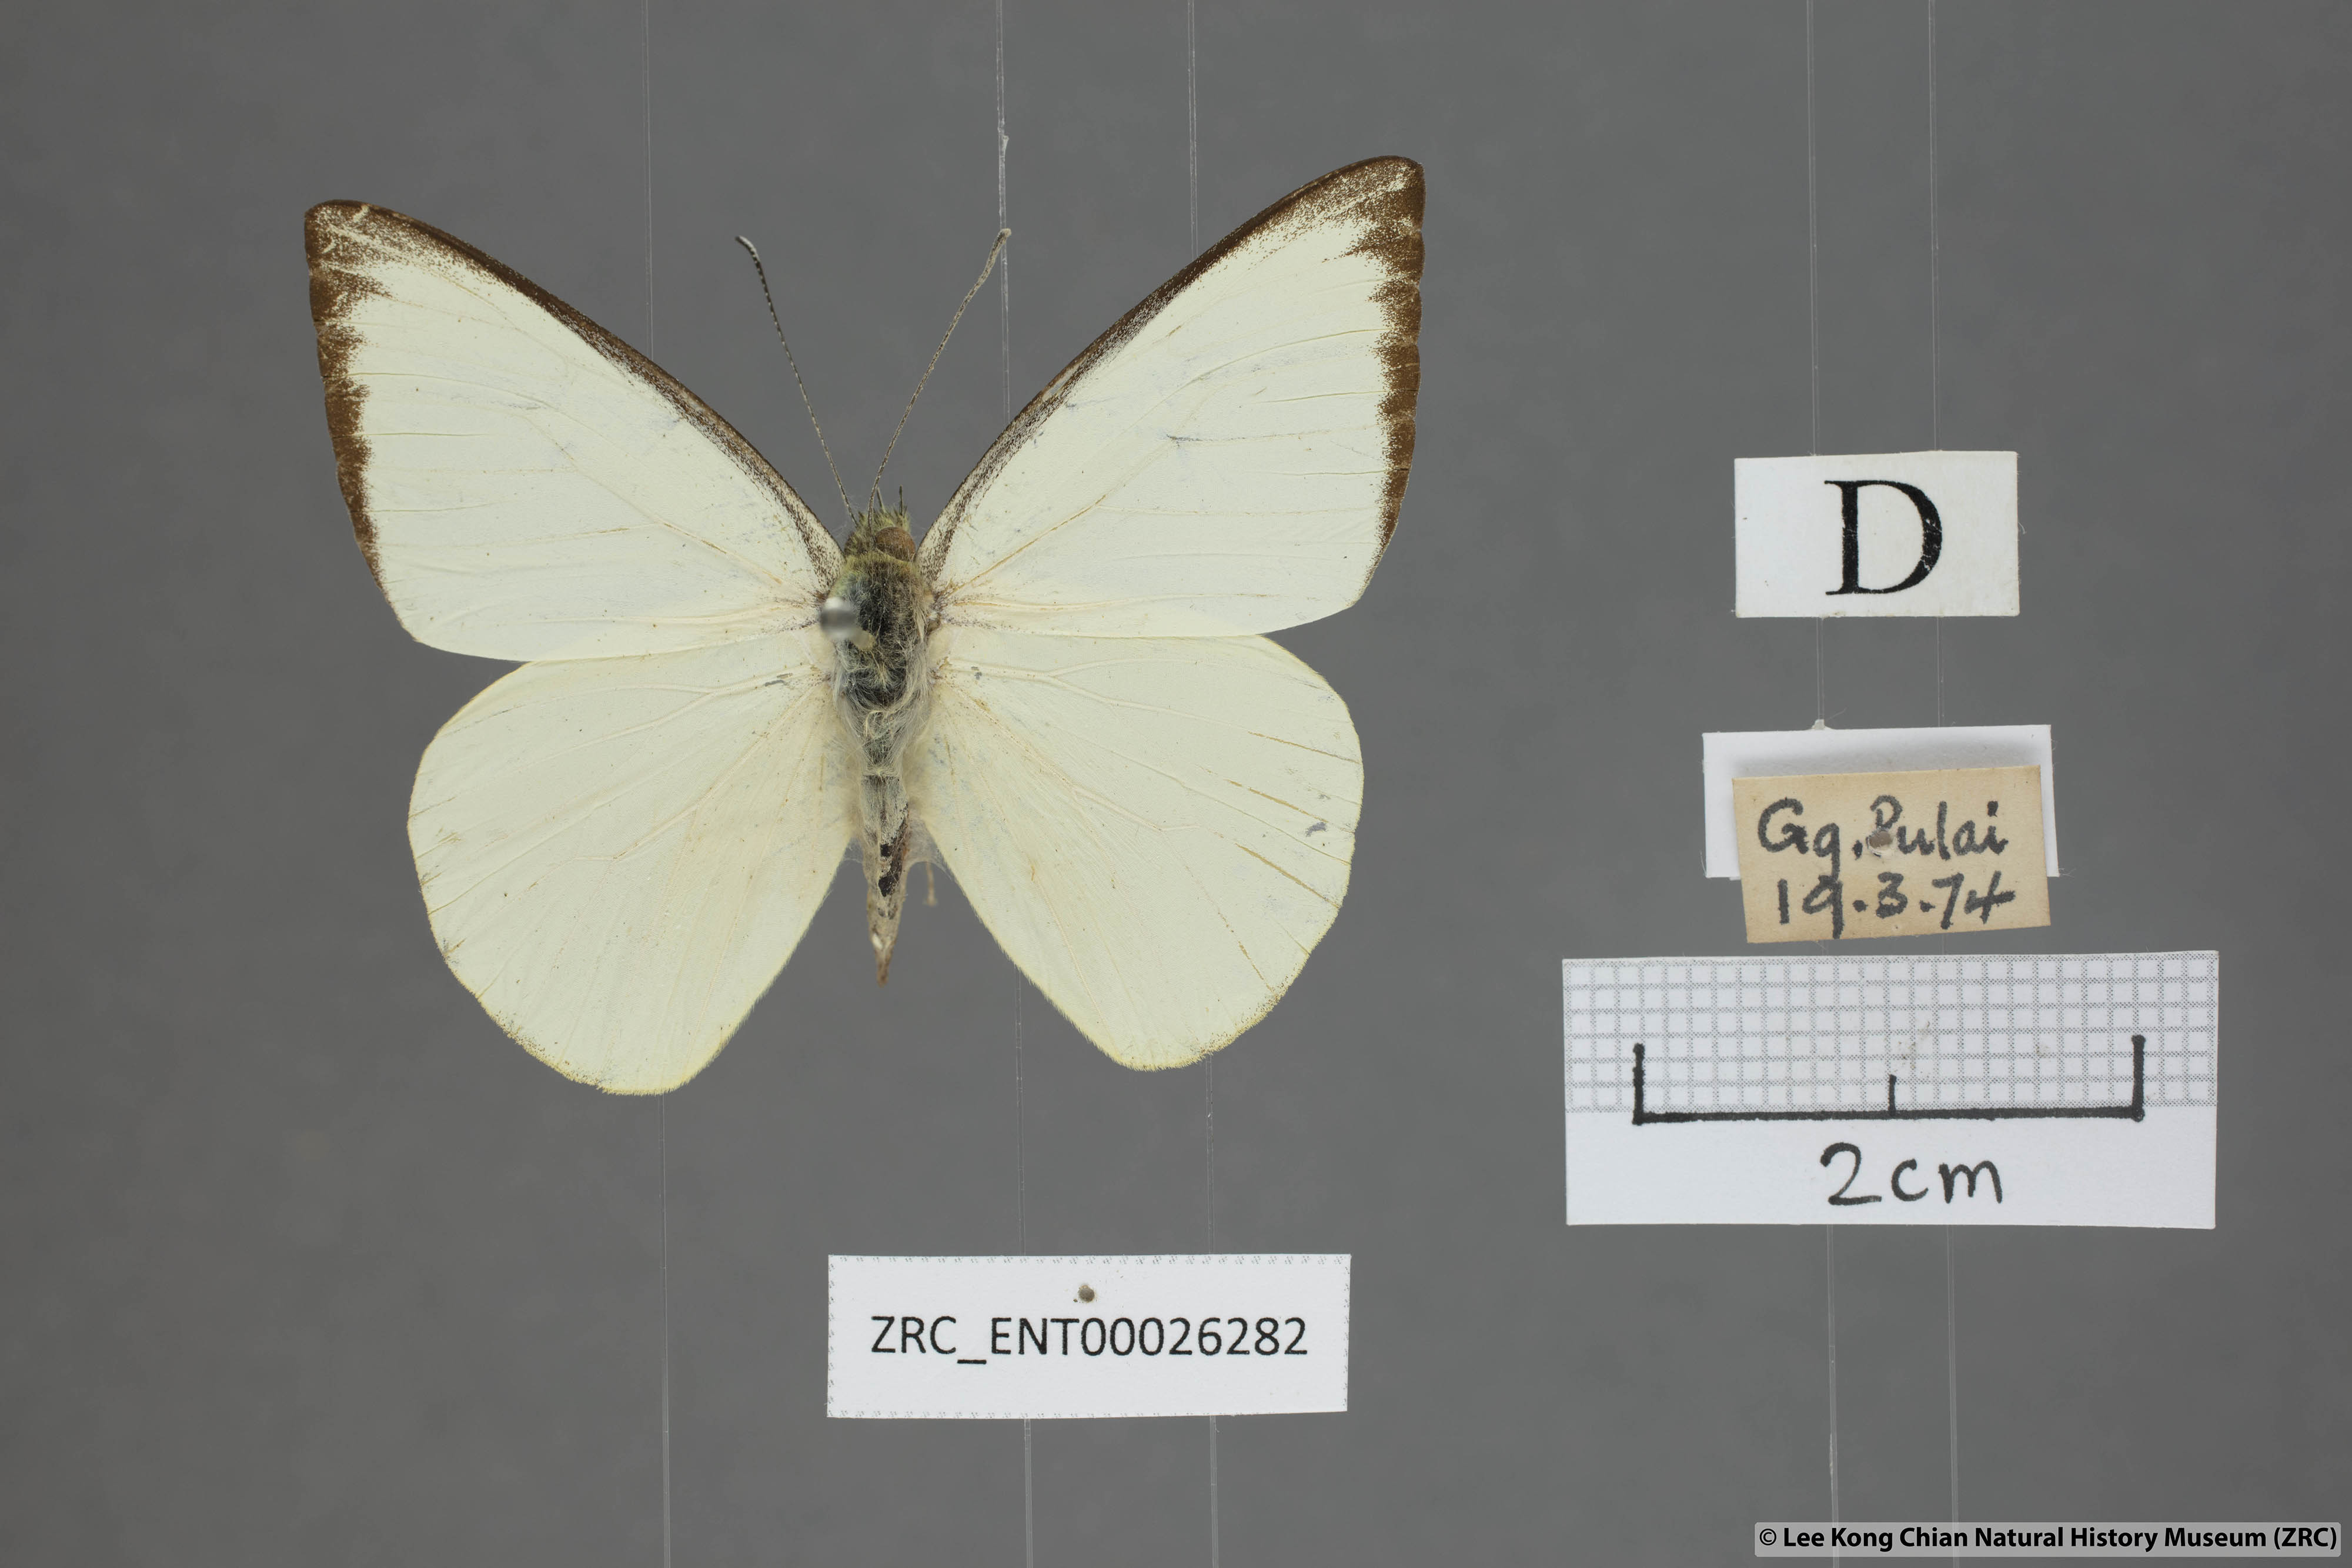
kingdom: Animalia
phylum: Arthropoda
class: Insecta
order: Lepidoptera
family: Pieridae
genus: Saletara
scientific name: Saletara liberia
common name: Pointed albatross
